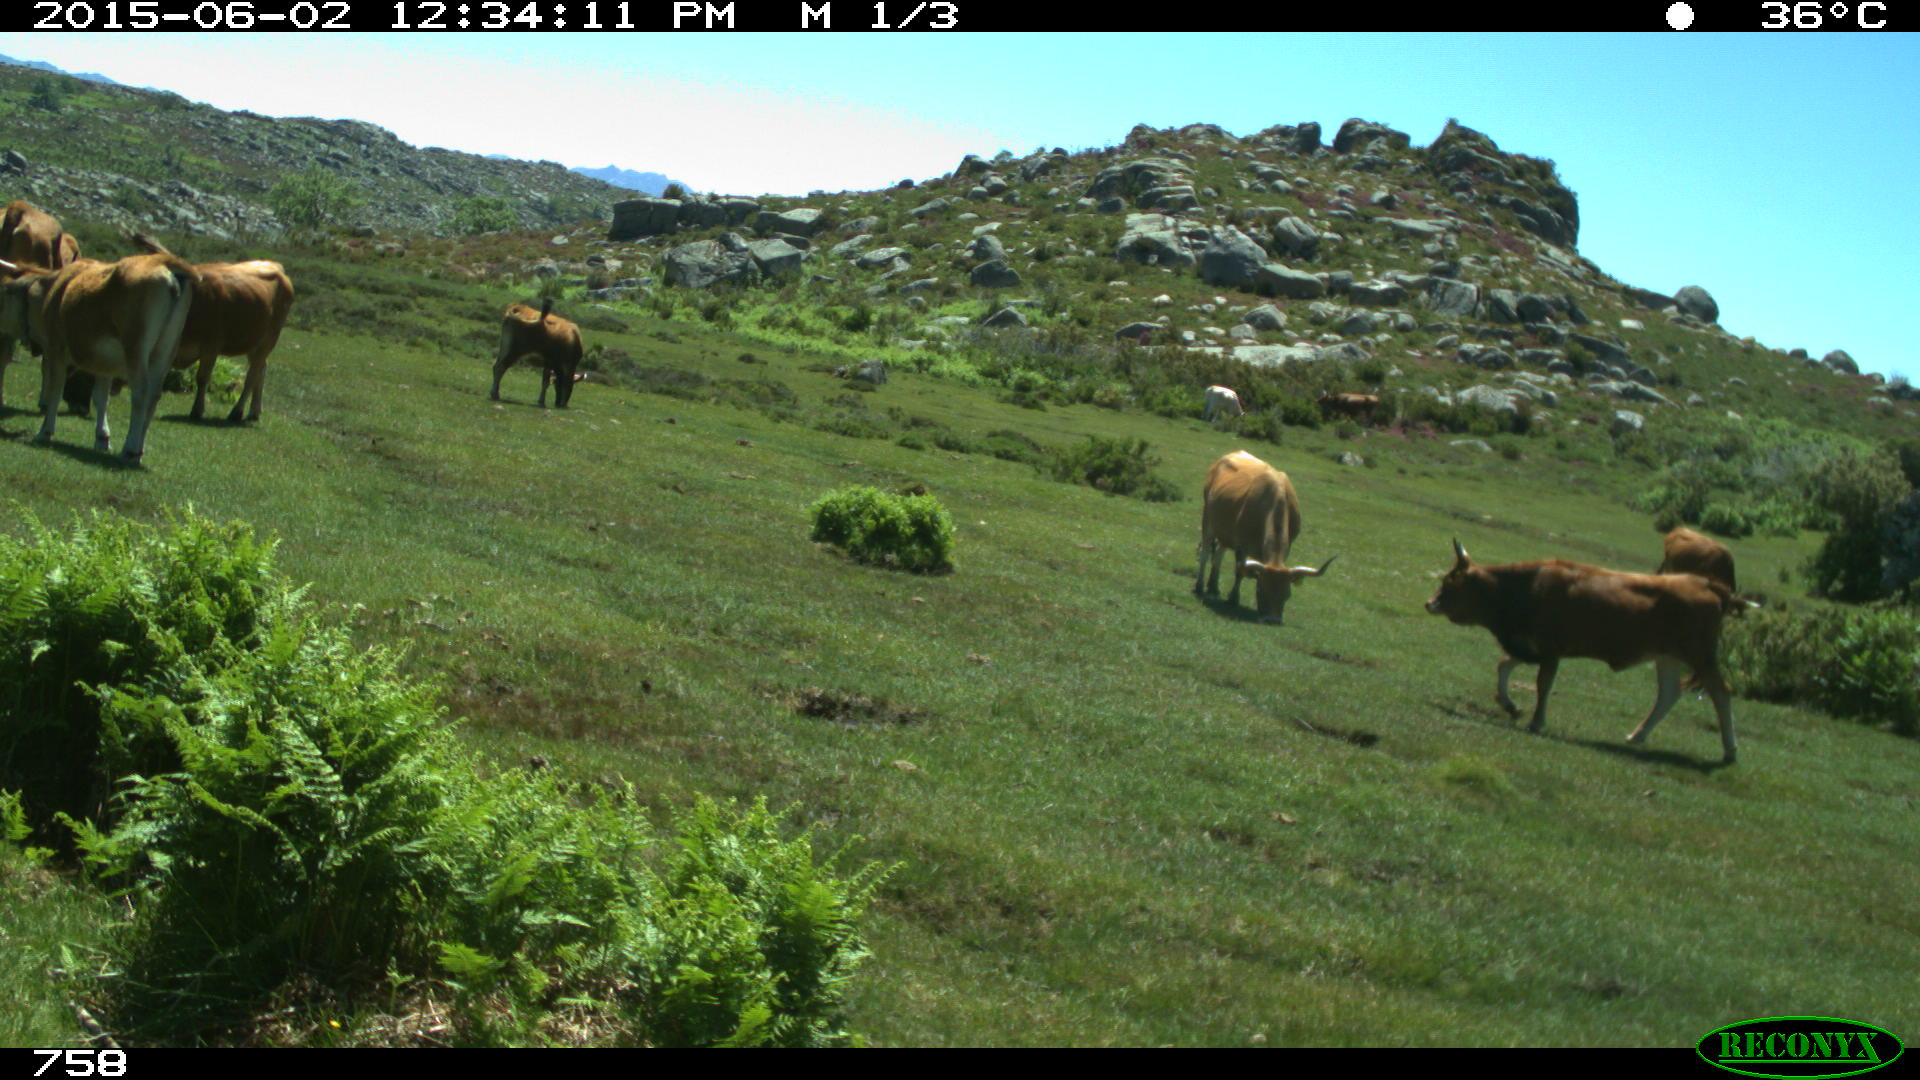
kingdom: Animalia
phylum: Chordata
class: Mammalia
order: Artiodactyla
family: Bovidae
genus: Bos
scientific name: Bos taurus
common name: Domesticated cattle
